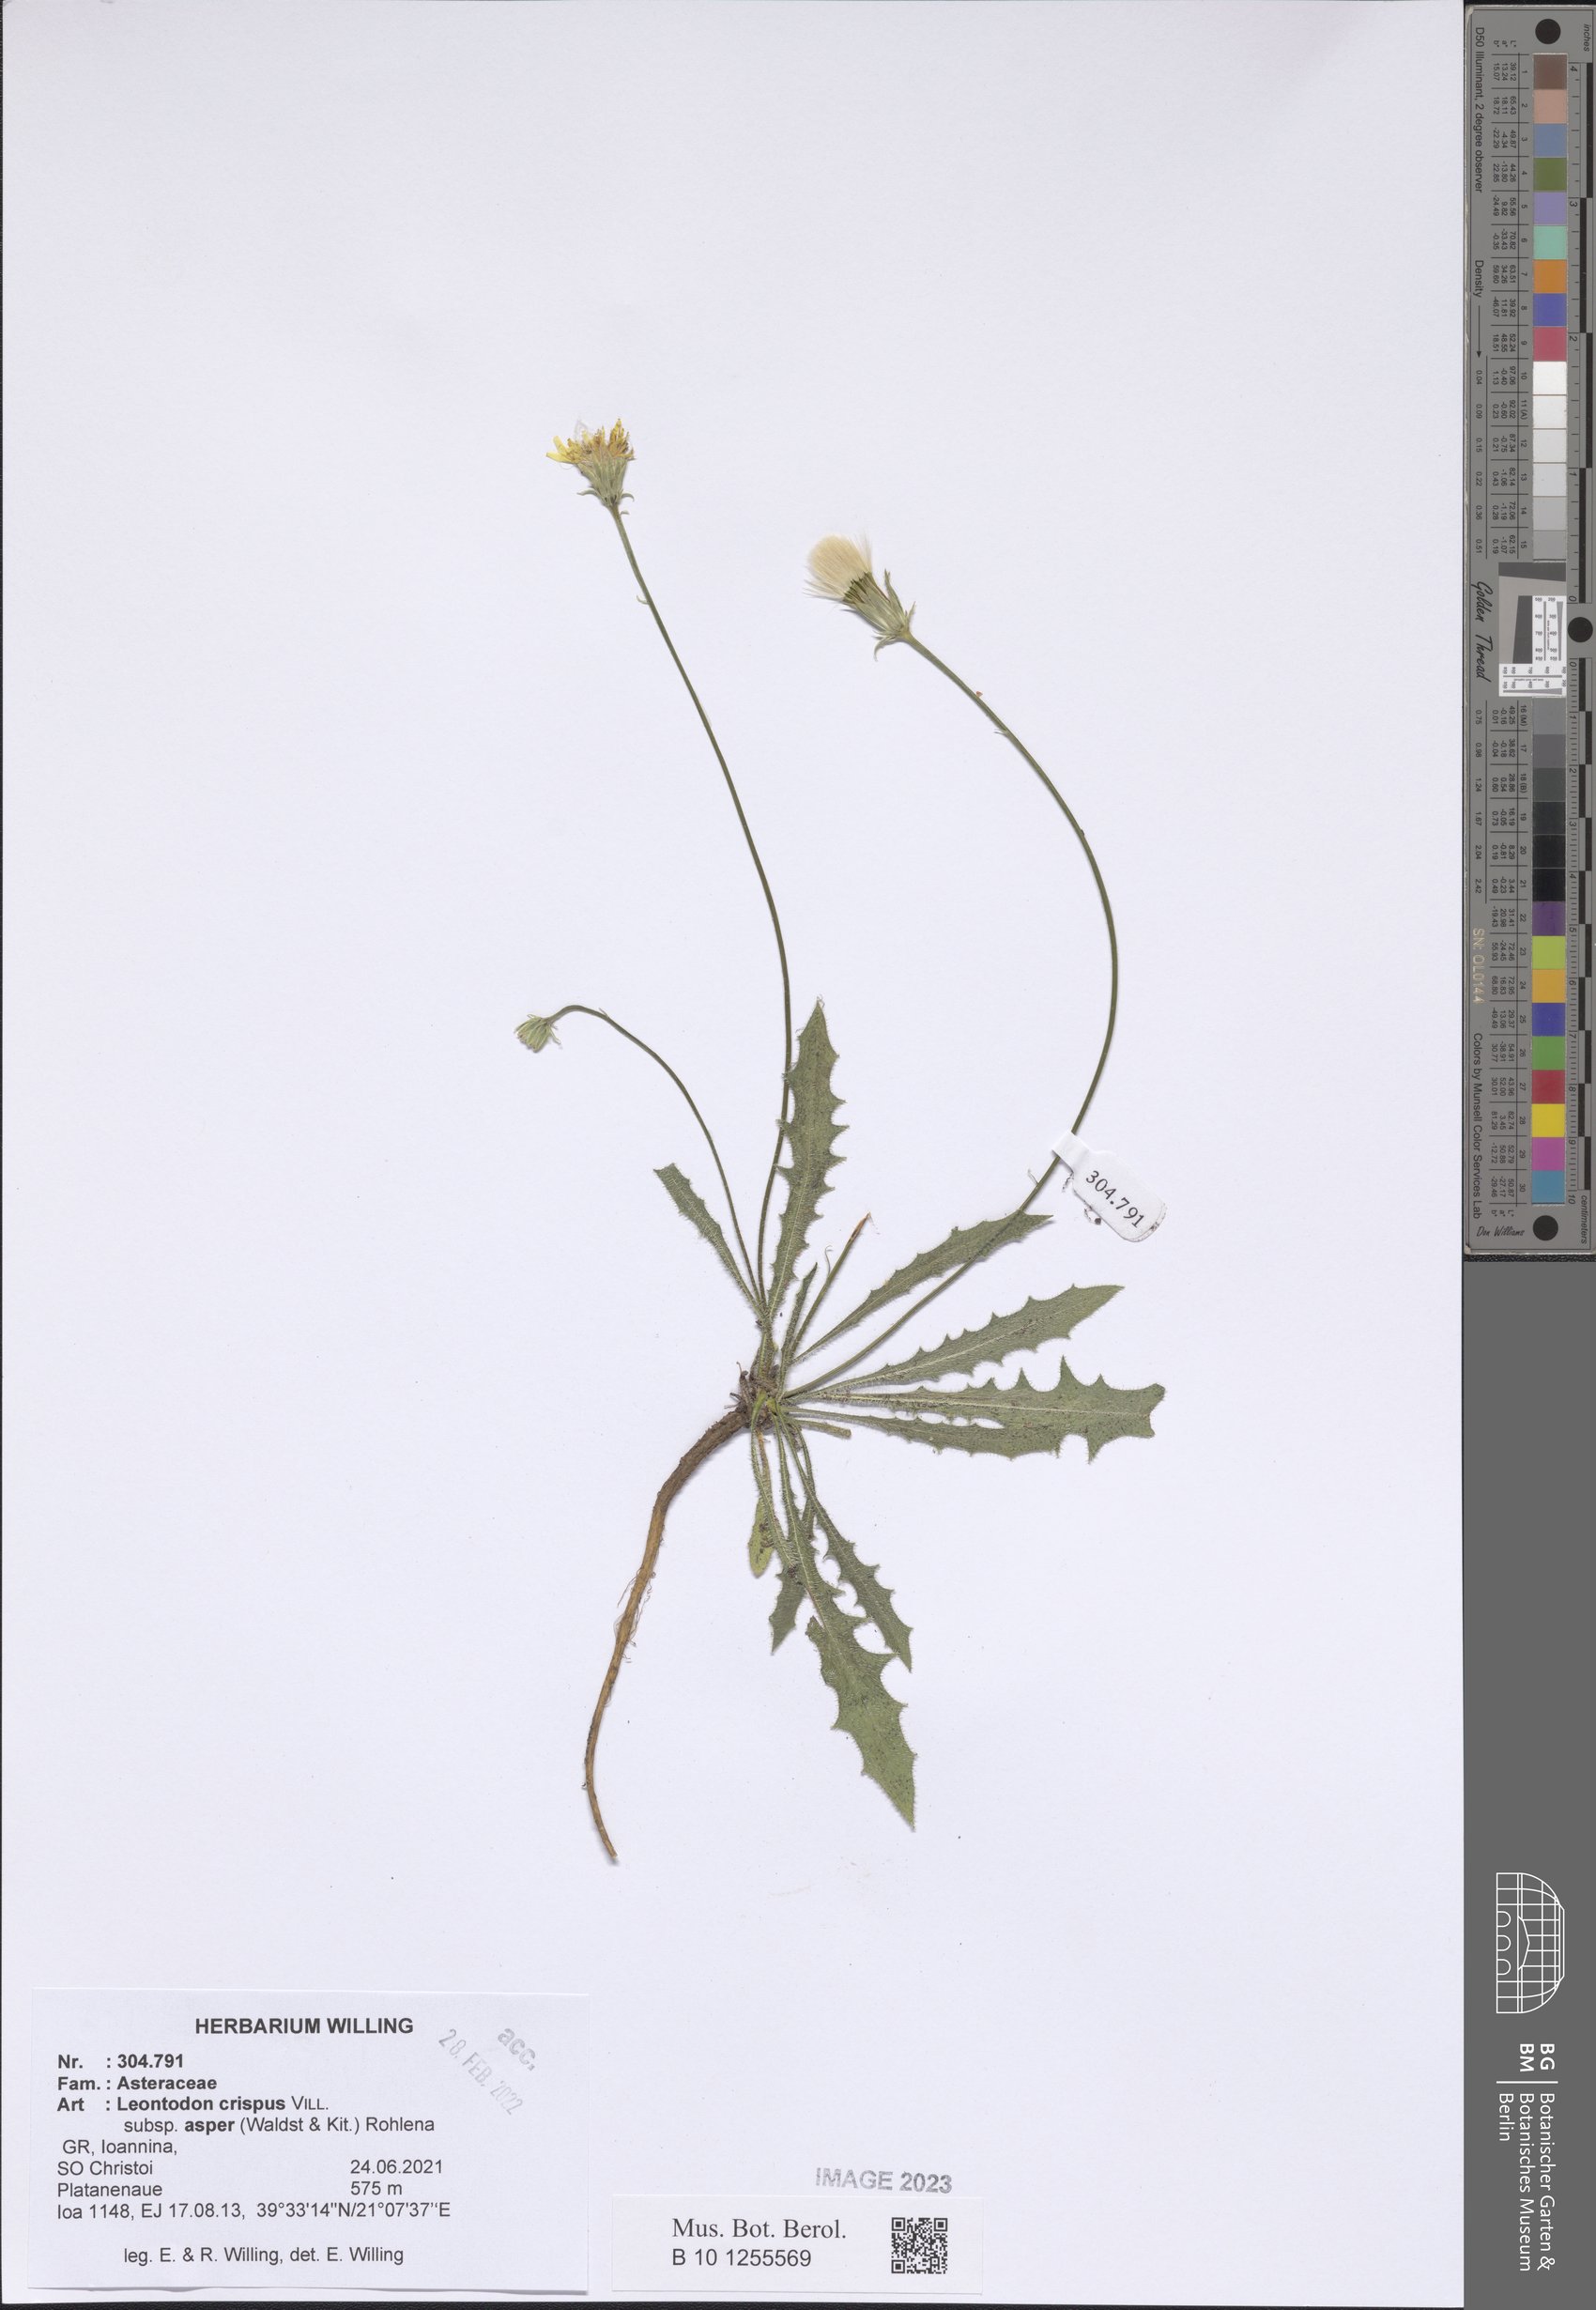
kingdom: Plantae
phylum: Tracheophyta
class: Magnoliopsida
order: Asterales
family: Asteraceae
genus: Leontodon
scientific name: Leontodon biscutellifolius
